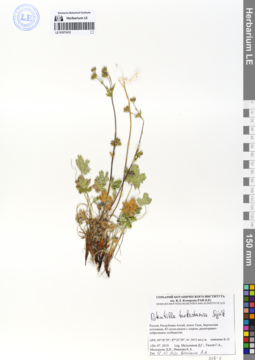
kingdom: Plantae
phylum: Tracheophyta
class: Magnoliopsida
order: Rosales
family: Rosaceae
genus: Potentilla
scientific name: Potentilla turkestanica
